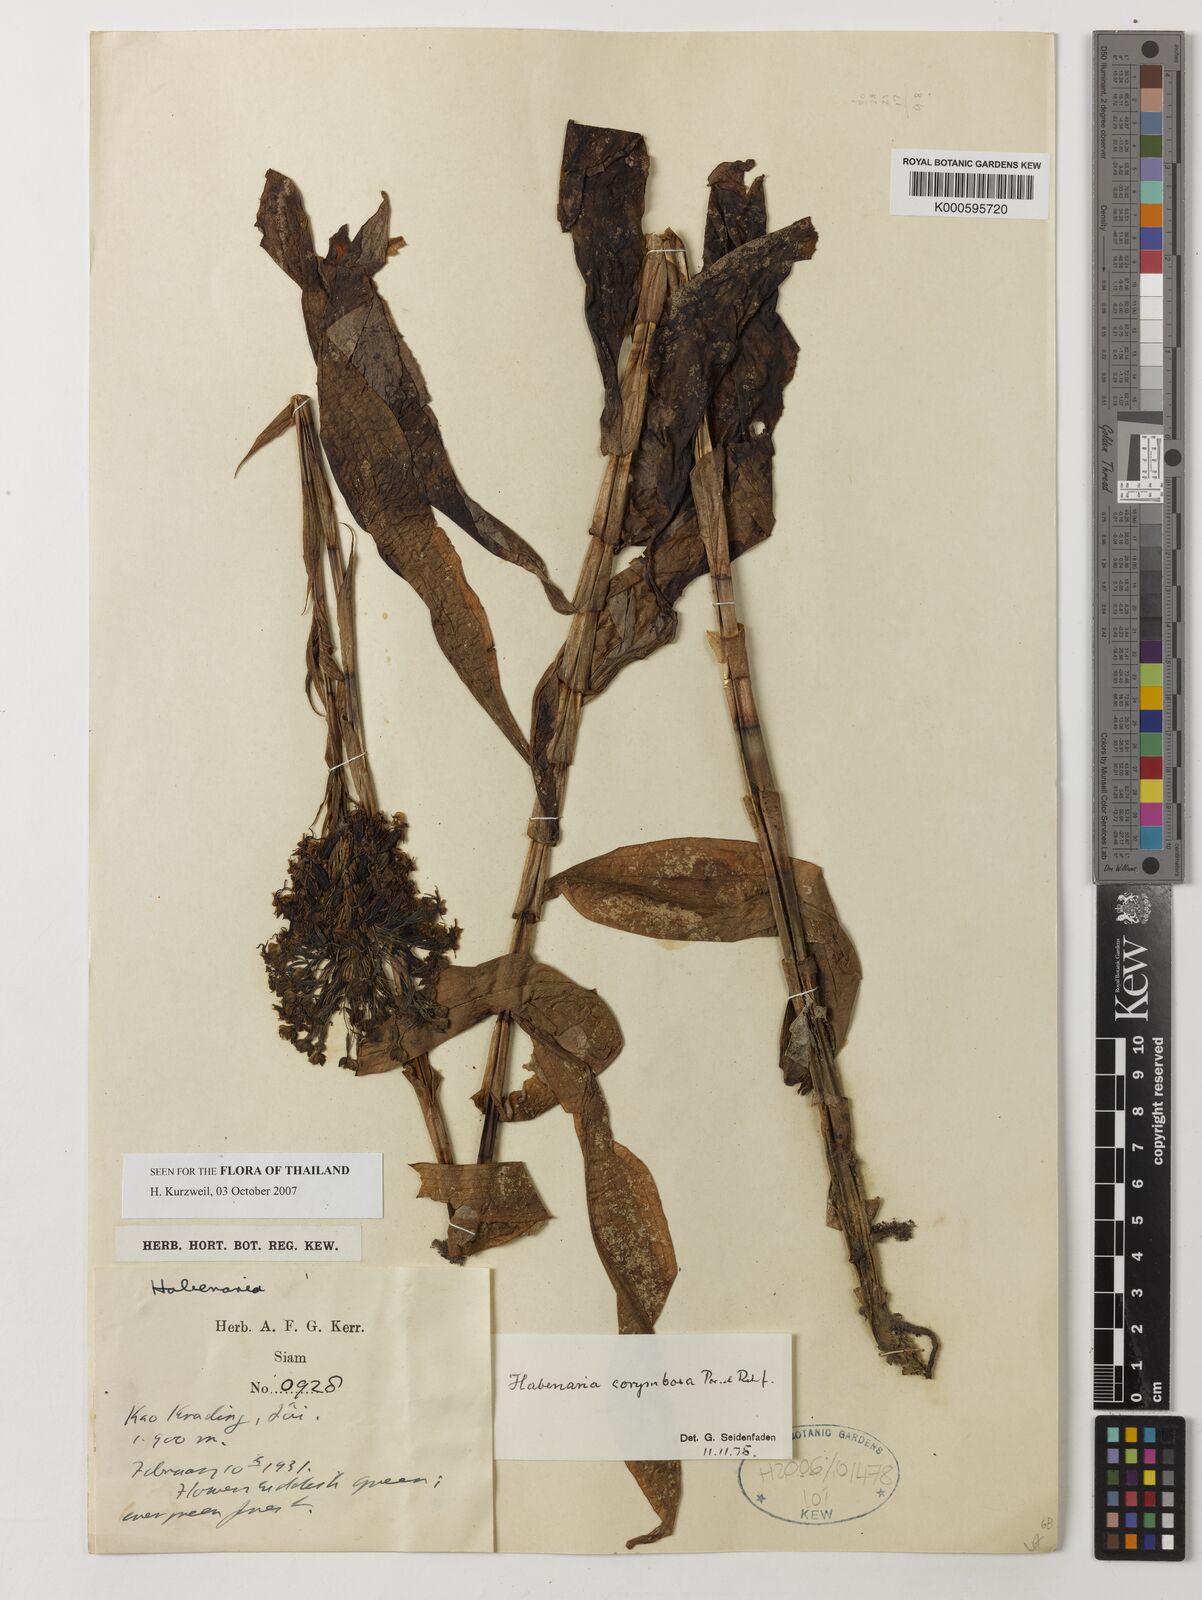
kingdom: Plantae
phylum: Tracheophyta
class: Liliopsida
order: Asparagales
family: Orchidaceae
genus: Habenaria
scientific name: Habenaria corymbosa
